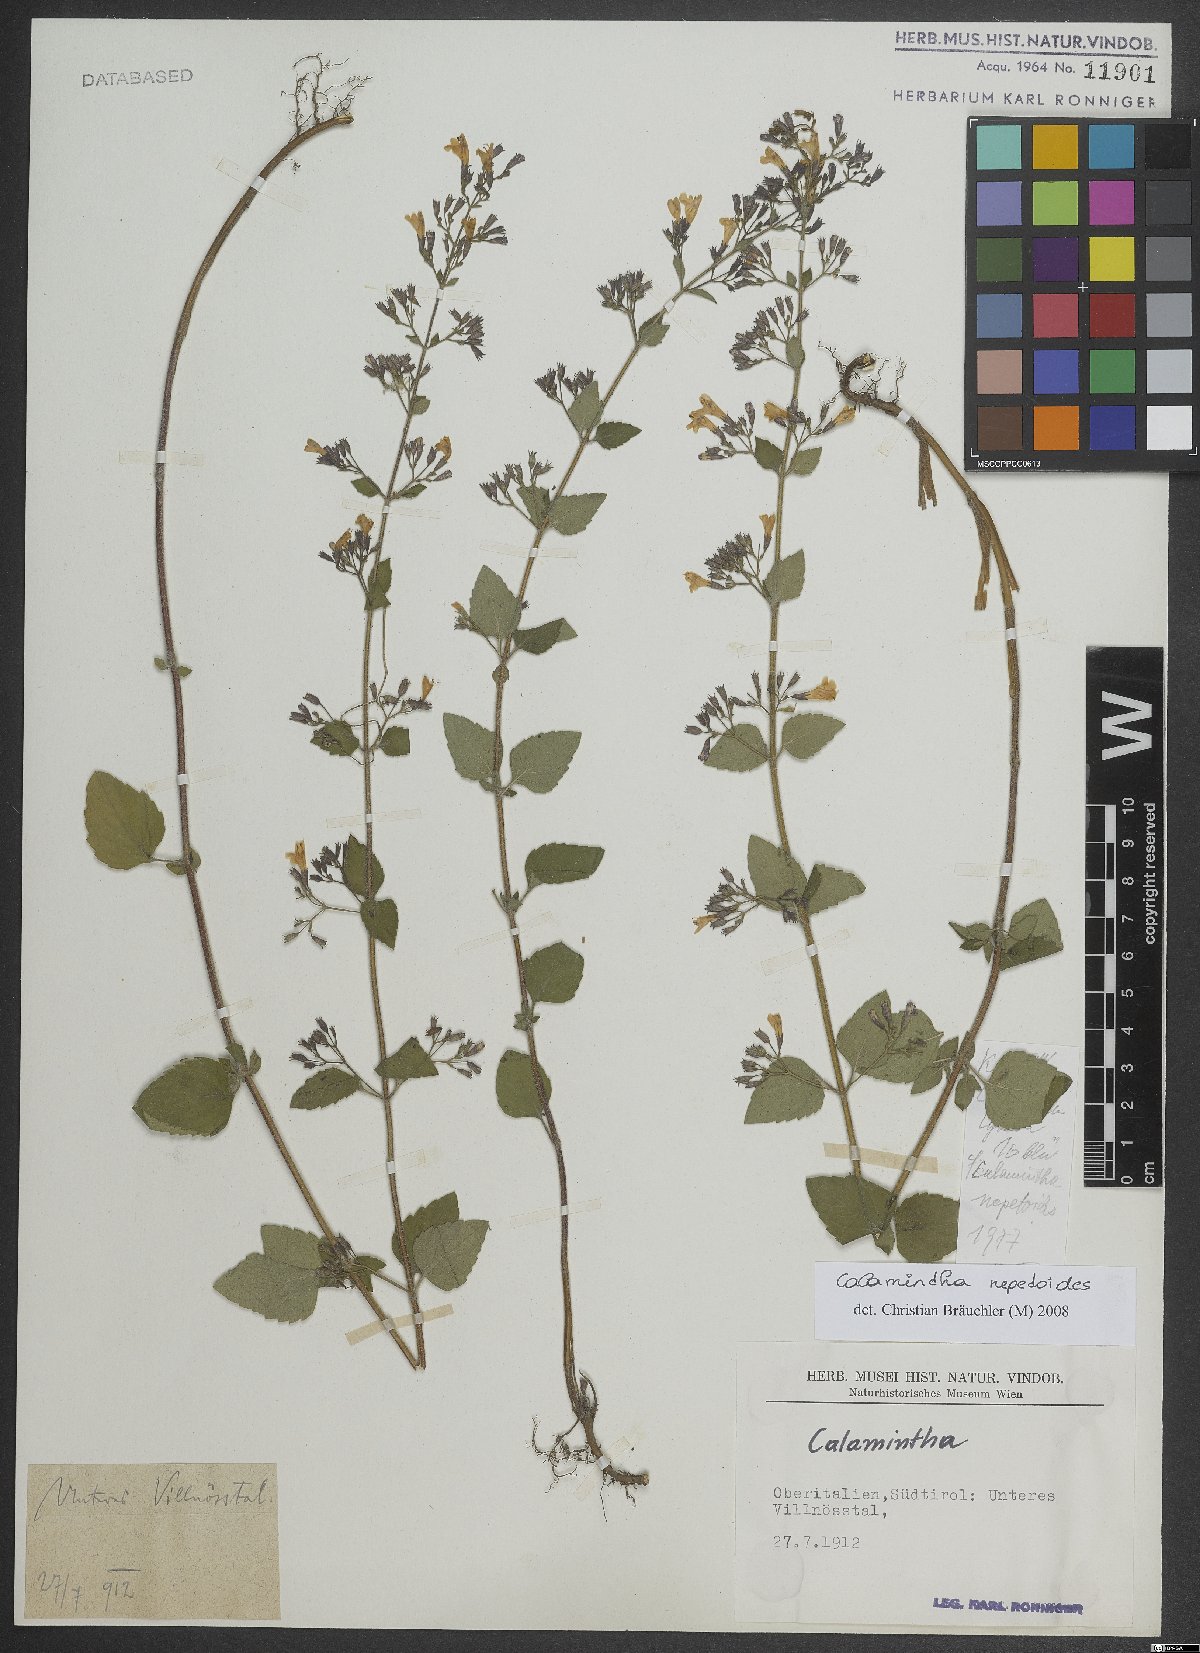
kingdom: Plantae
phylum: Tracheophyta
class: Magnoliopsida
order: Lamiales
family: Lamiaceae
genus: Clinopodium
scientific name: Clinopodium nepeta
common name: Lesser calamint
